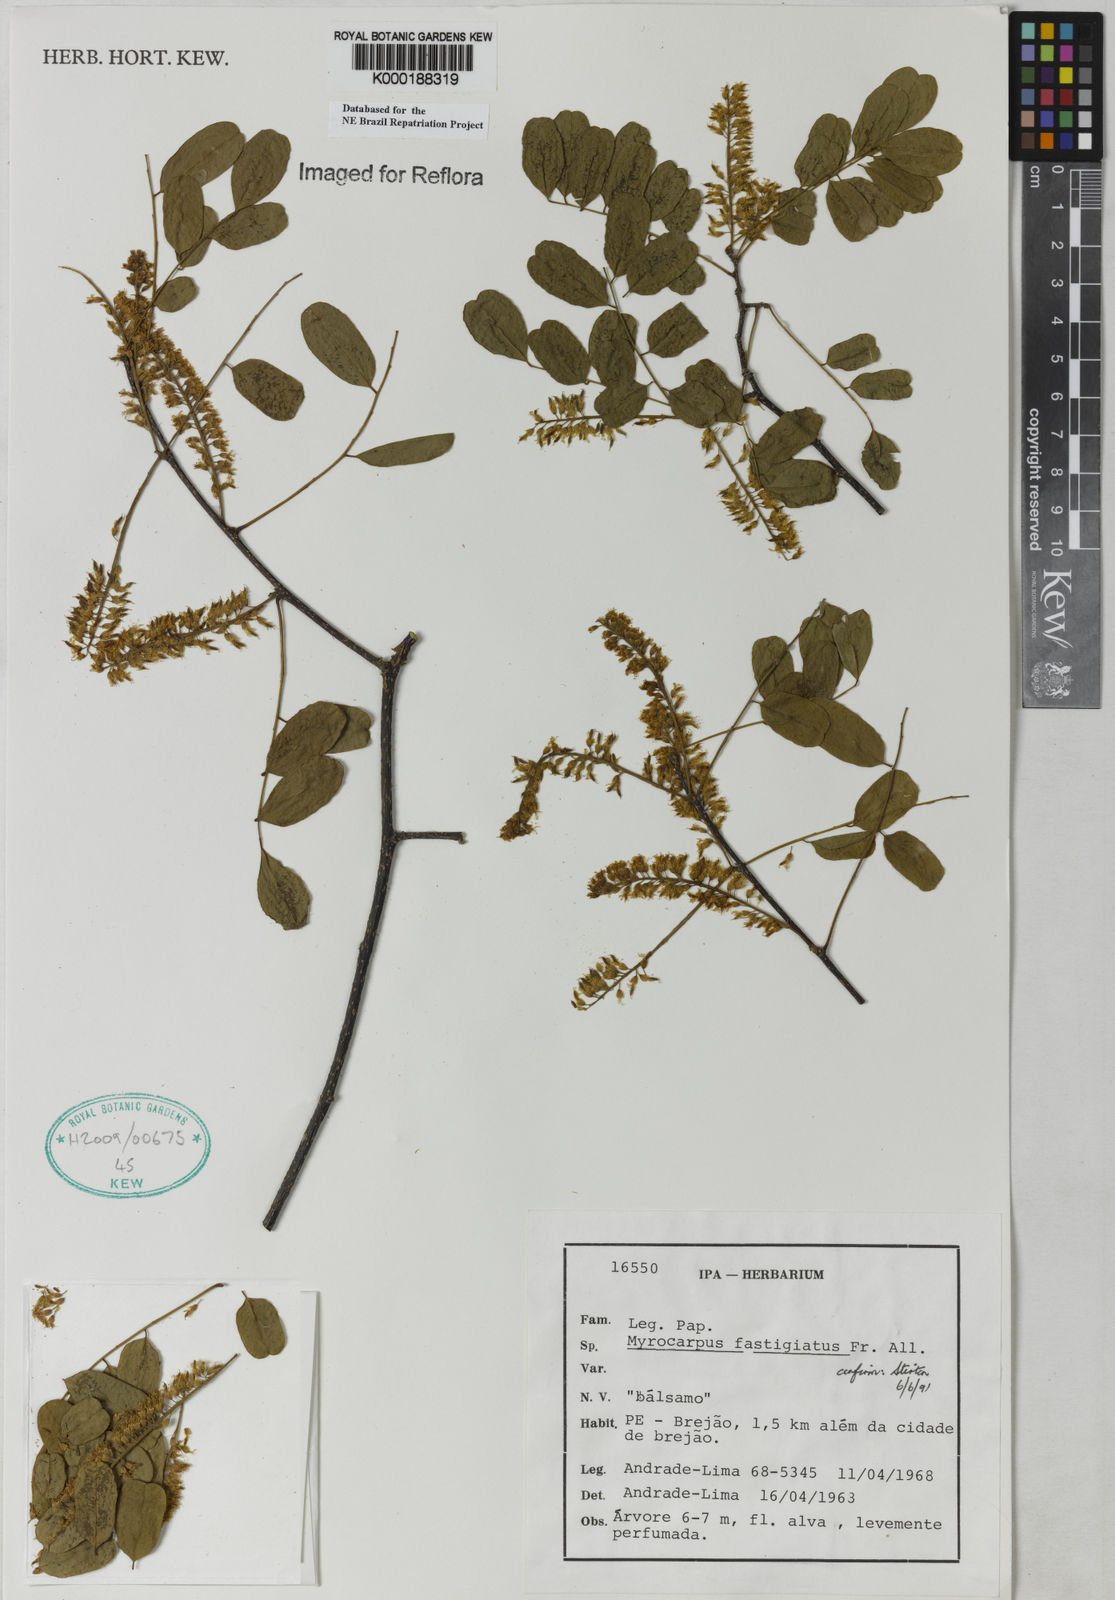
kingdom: Plantae
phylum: Tracheophyta
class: Magnoliopsida
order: Fabales
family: Fabaceae
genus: Myrocarpus
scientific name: Myrocarpus fastigiatus
